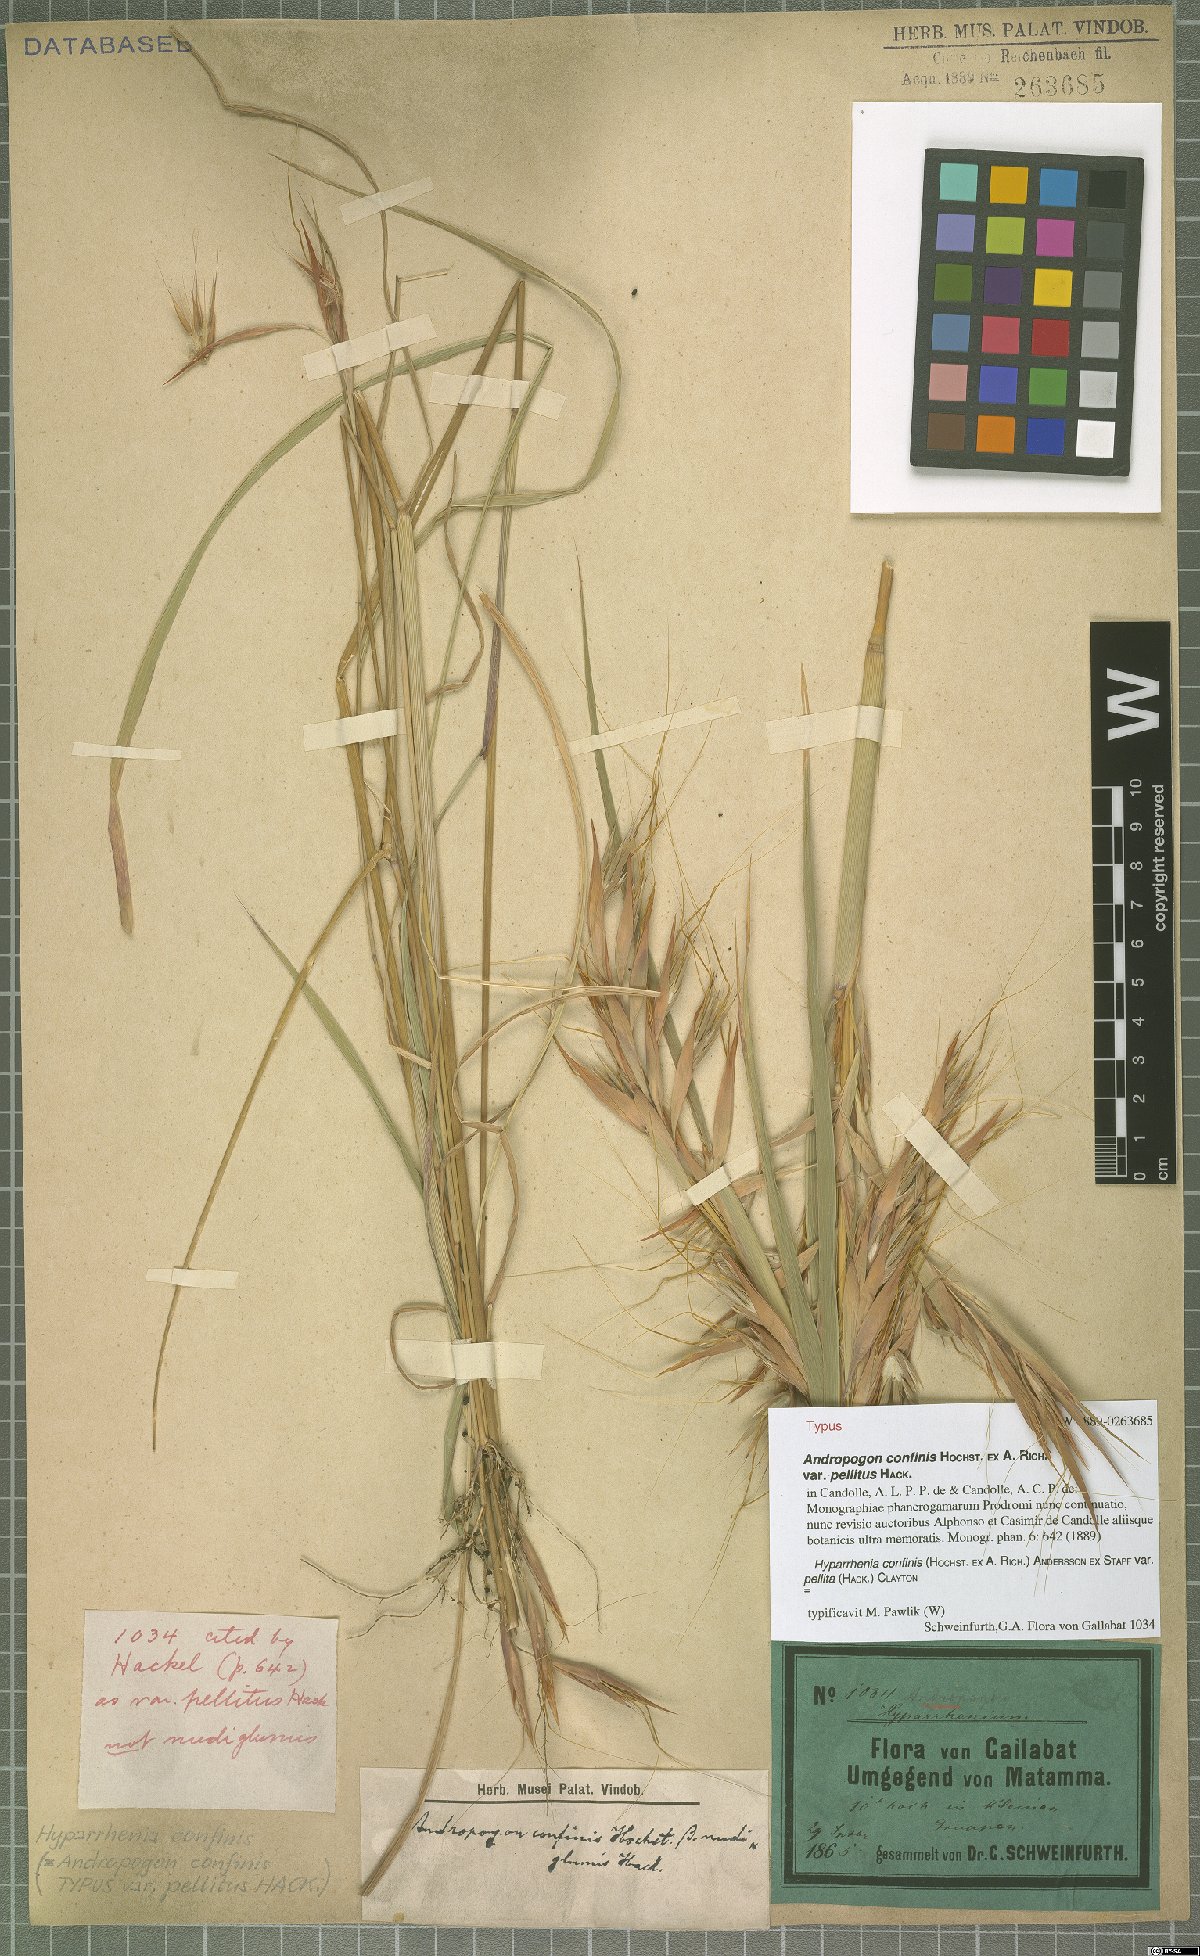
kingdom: Plantae
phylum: Tracheophyta
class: Liliopsida
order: Poales
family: Poaceae
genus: Hyparrhenia
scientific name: Hyparrhenia confinis
